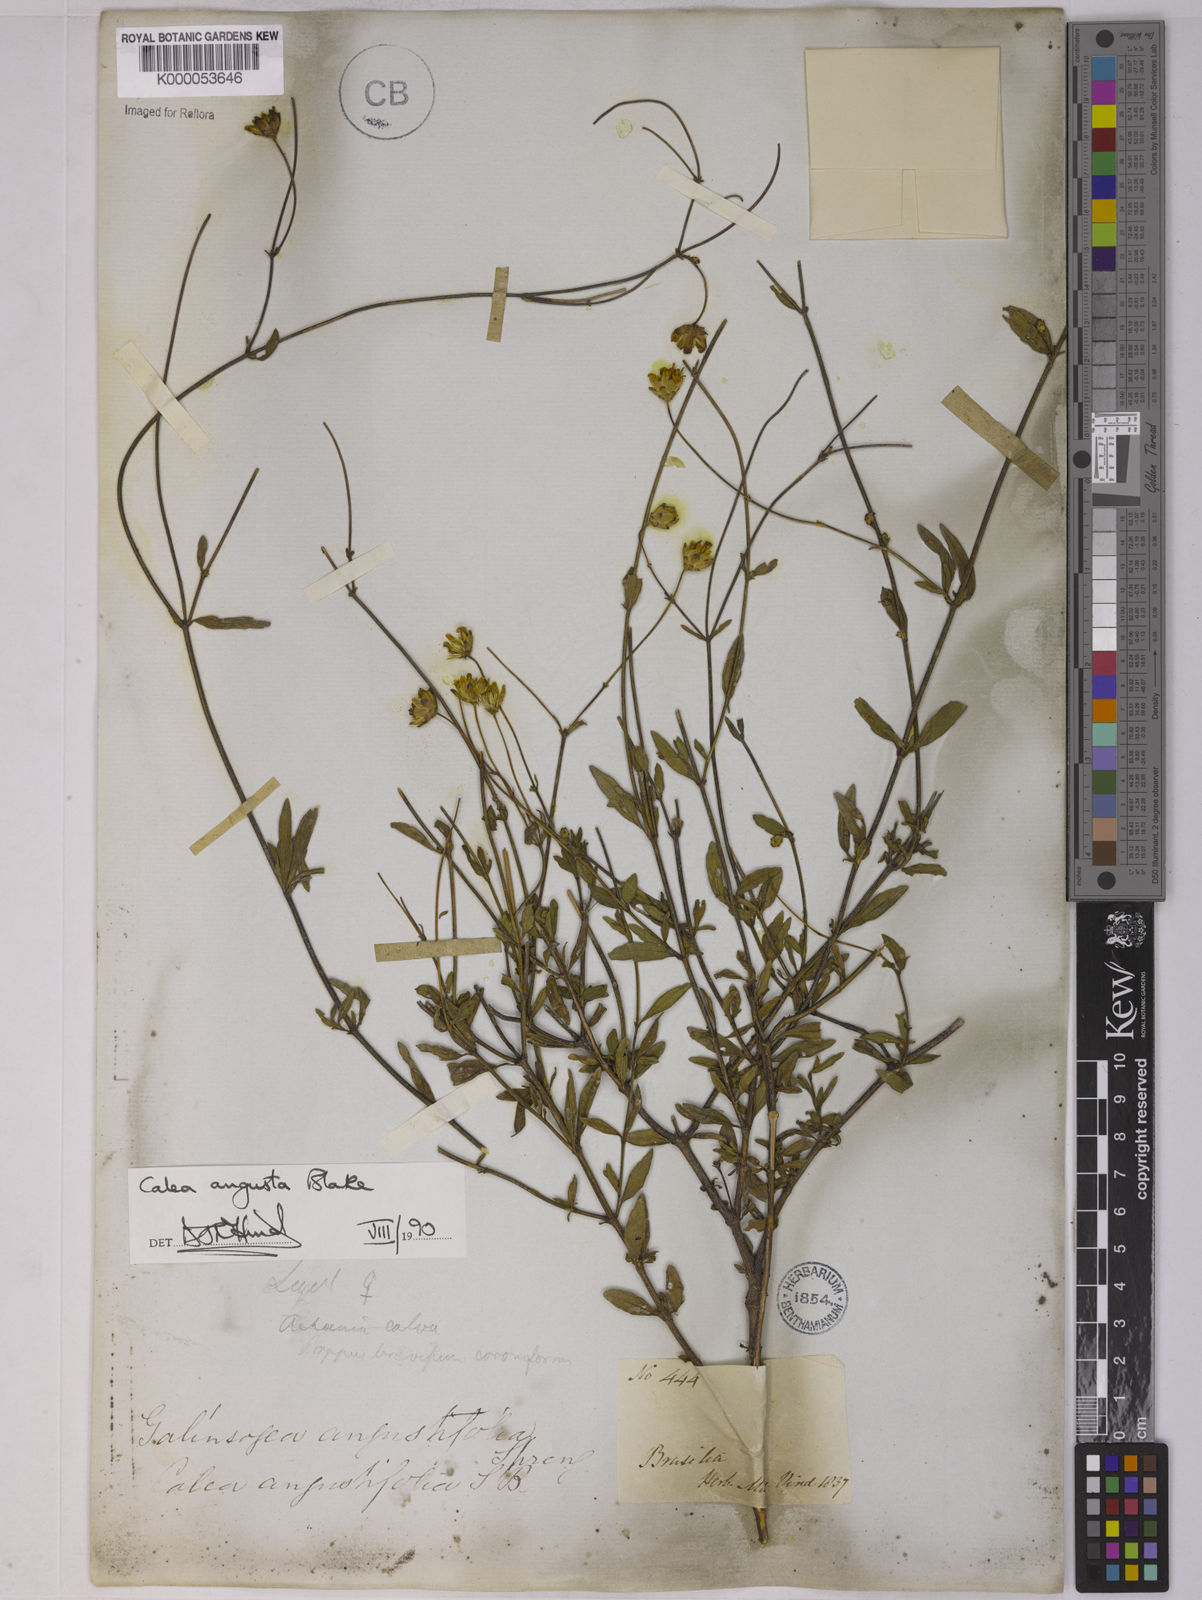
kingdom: Plantae
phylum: Tracheophyta
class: Magnoliopsida
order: Asterales
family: Asteraceae
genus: Calea
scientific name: Calea angusta
